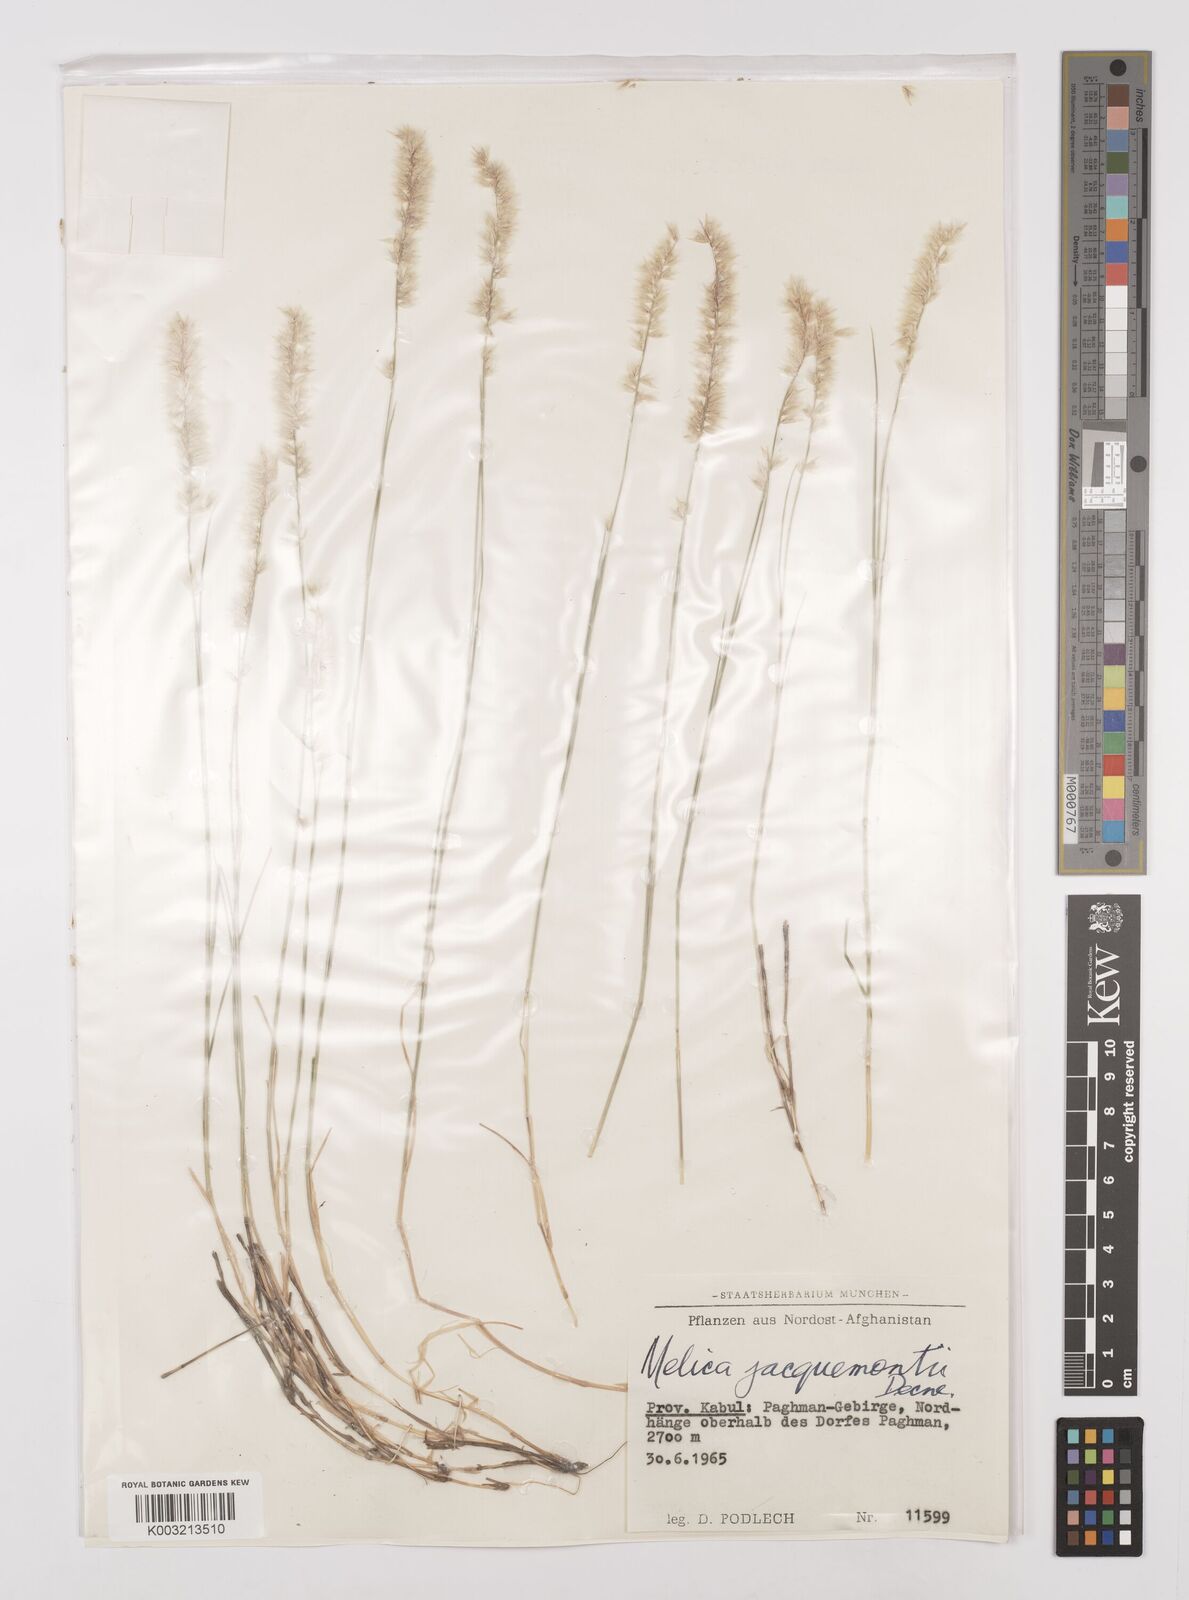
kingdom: Plantae
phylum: Tracheophyta
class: Liliopsida
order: Poales
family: Poaceae
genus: Melica
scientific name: Melica persica
